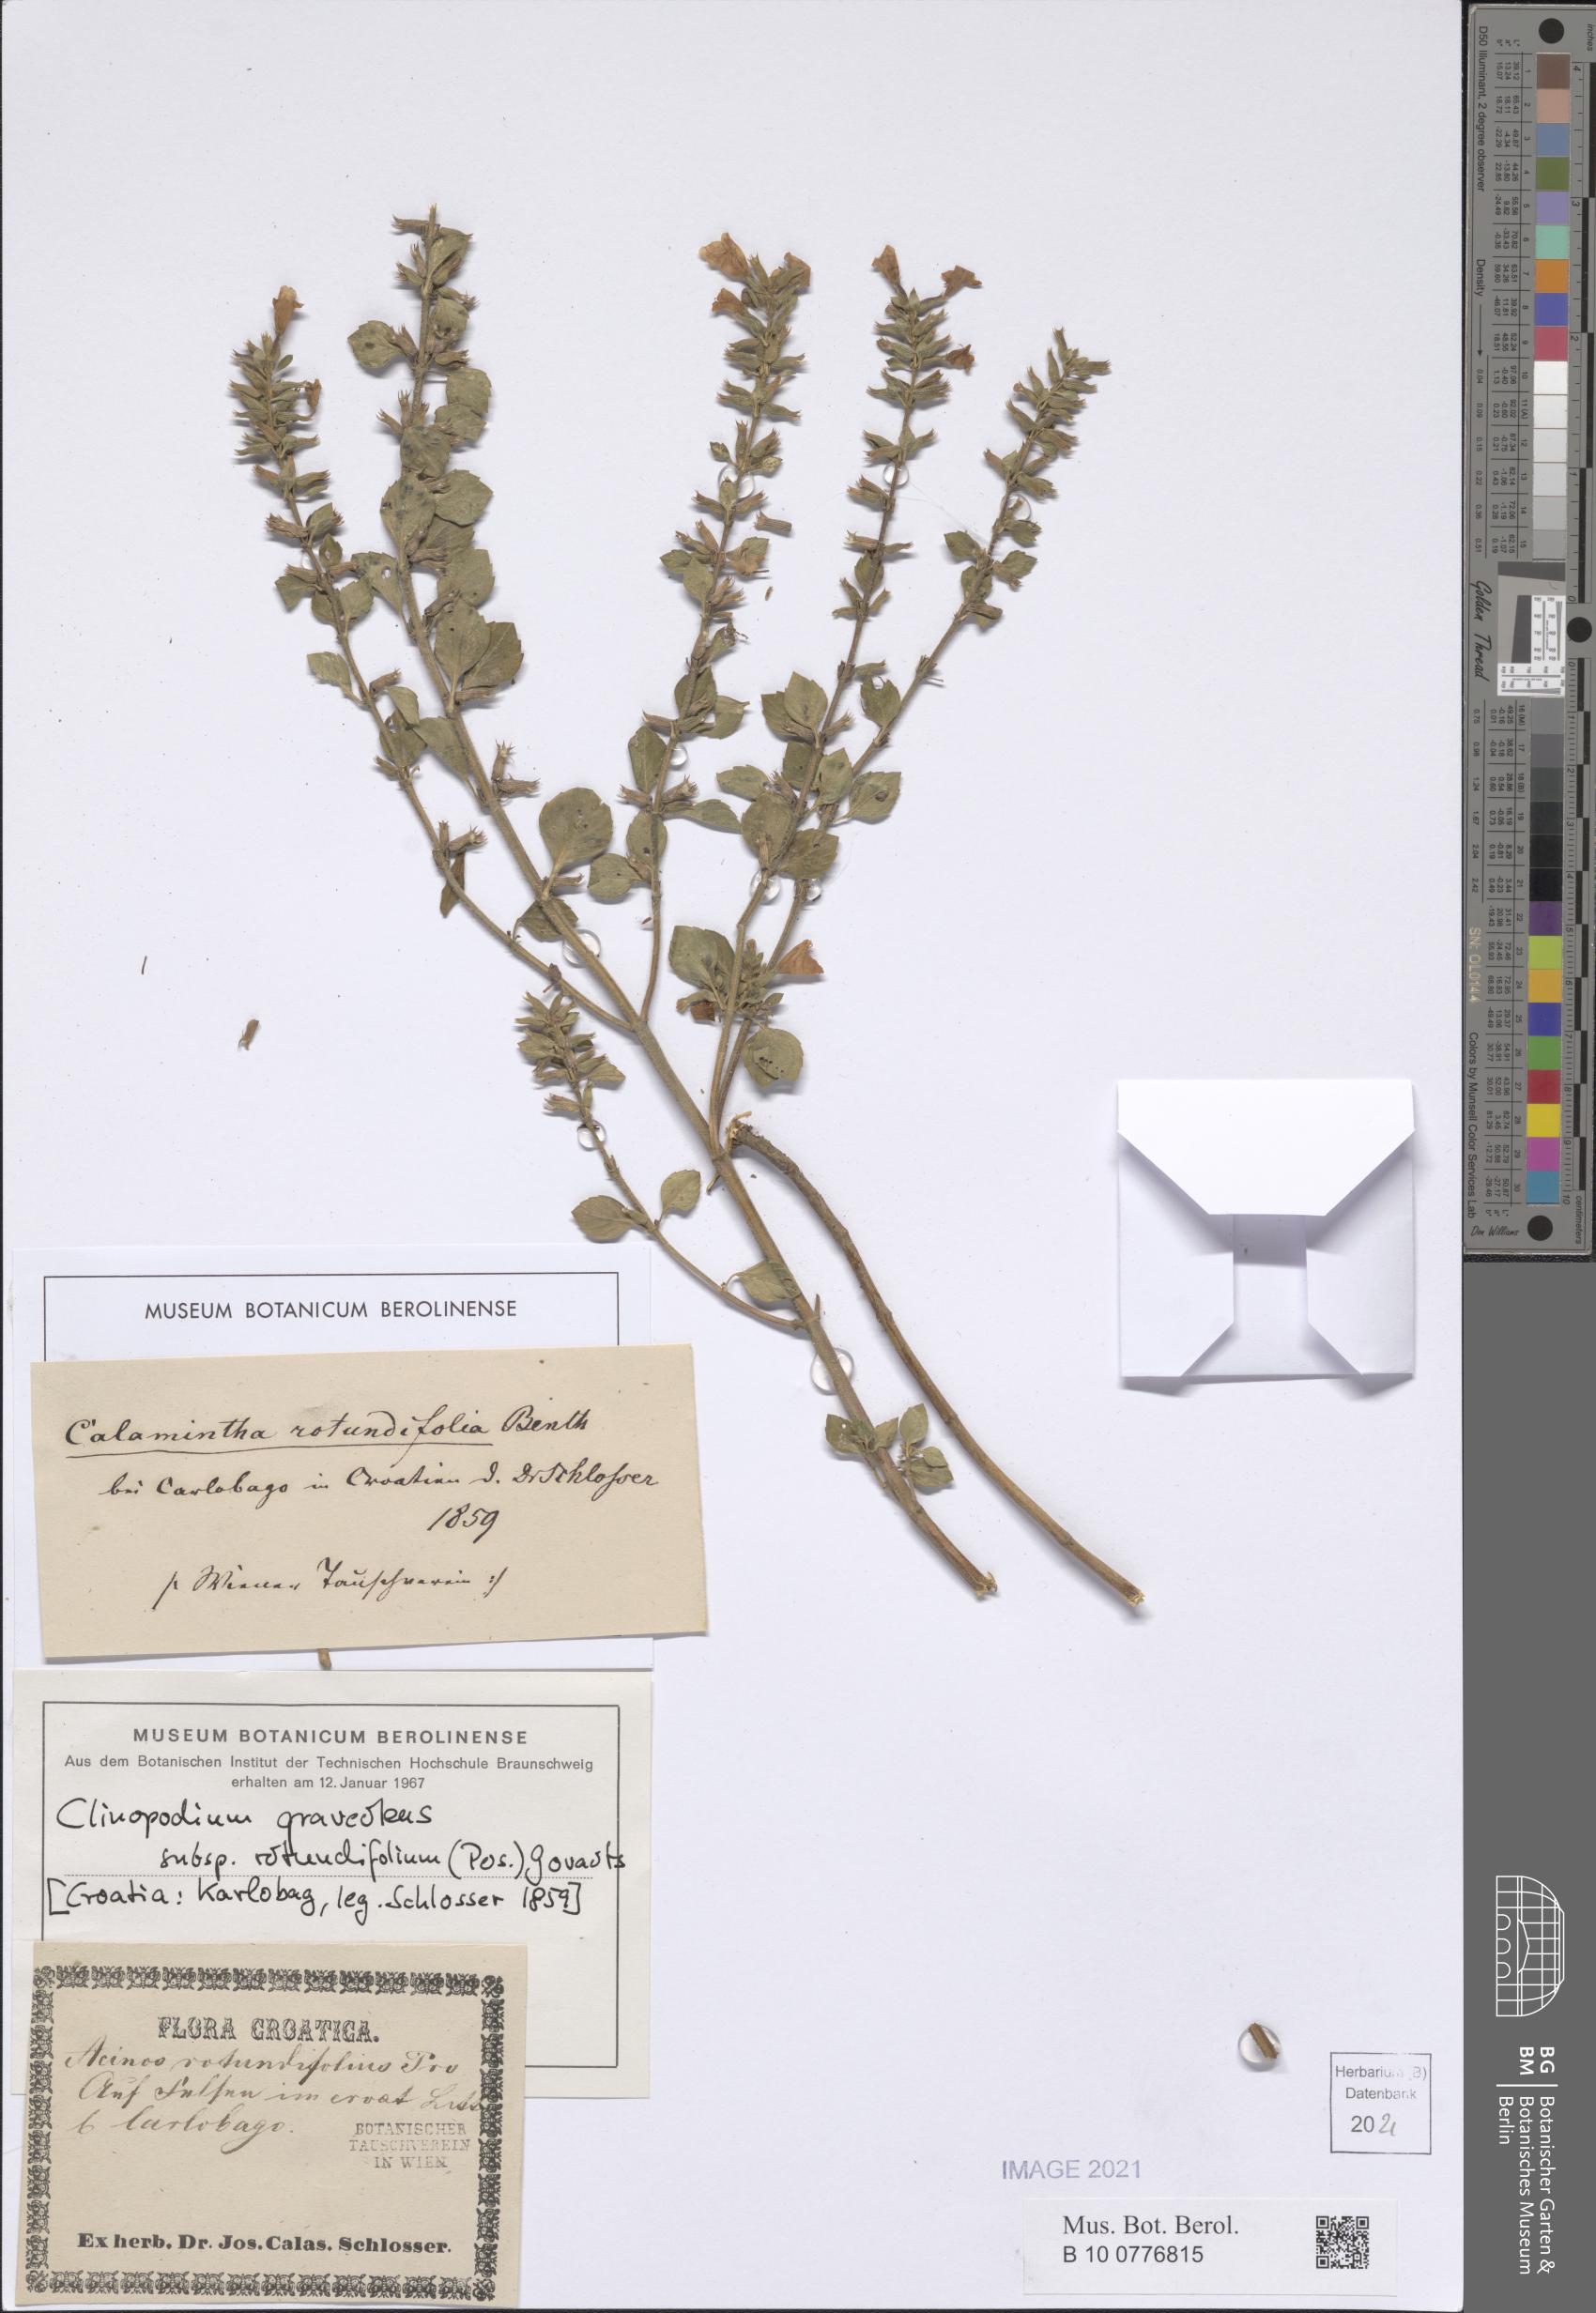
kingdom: Plantae
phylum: Tracheophyta
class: Magnoliopsida
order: Lamiales
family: Lamiaceae
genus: Clinopodium
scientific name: Clinopodium graveolens
